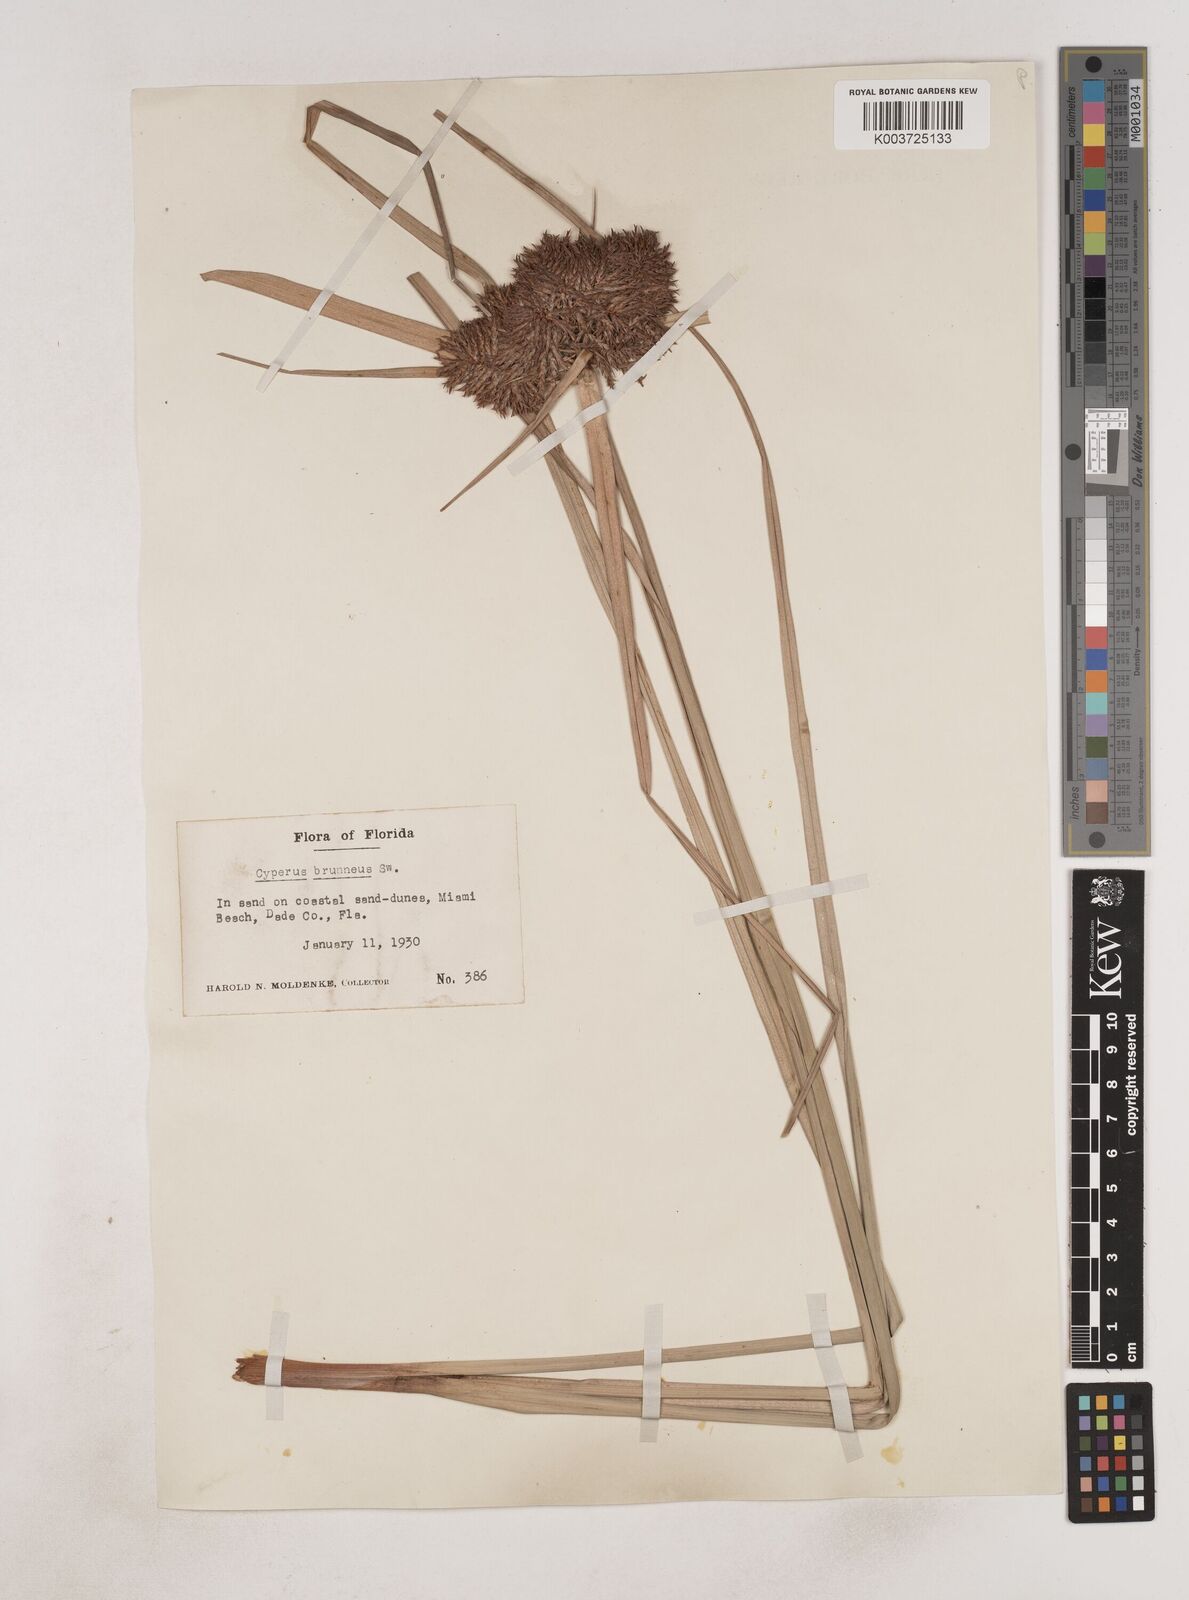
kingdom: Plantae
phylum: Tracheophyta
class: Liliopsida
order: Poales
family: Cyperaceae
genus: Cyperus
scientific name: Cyperus brunneus
